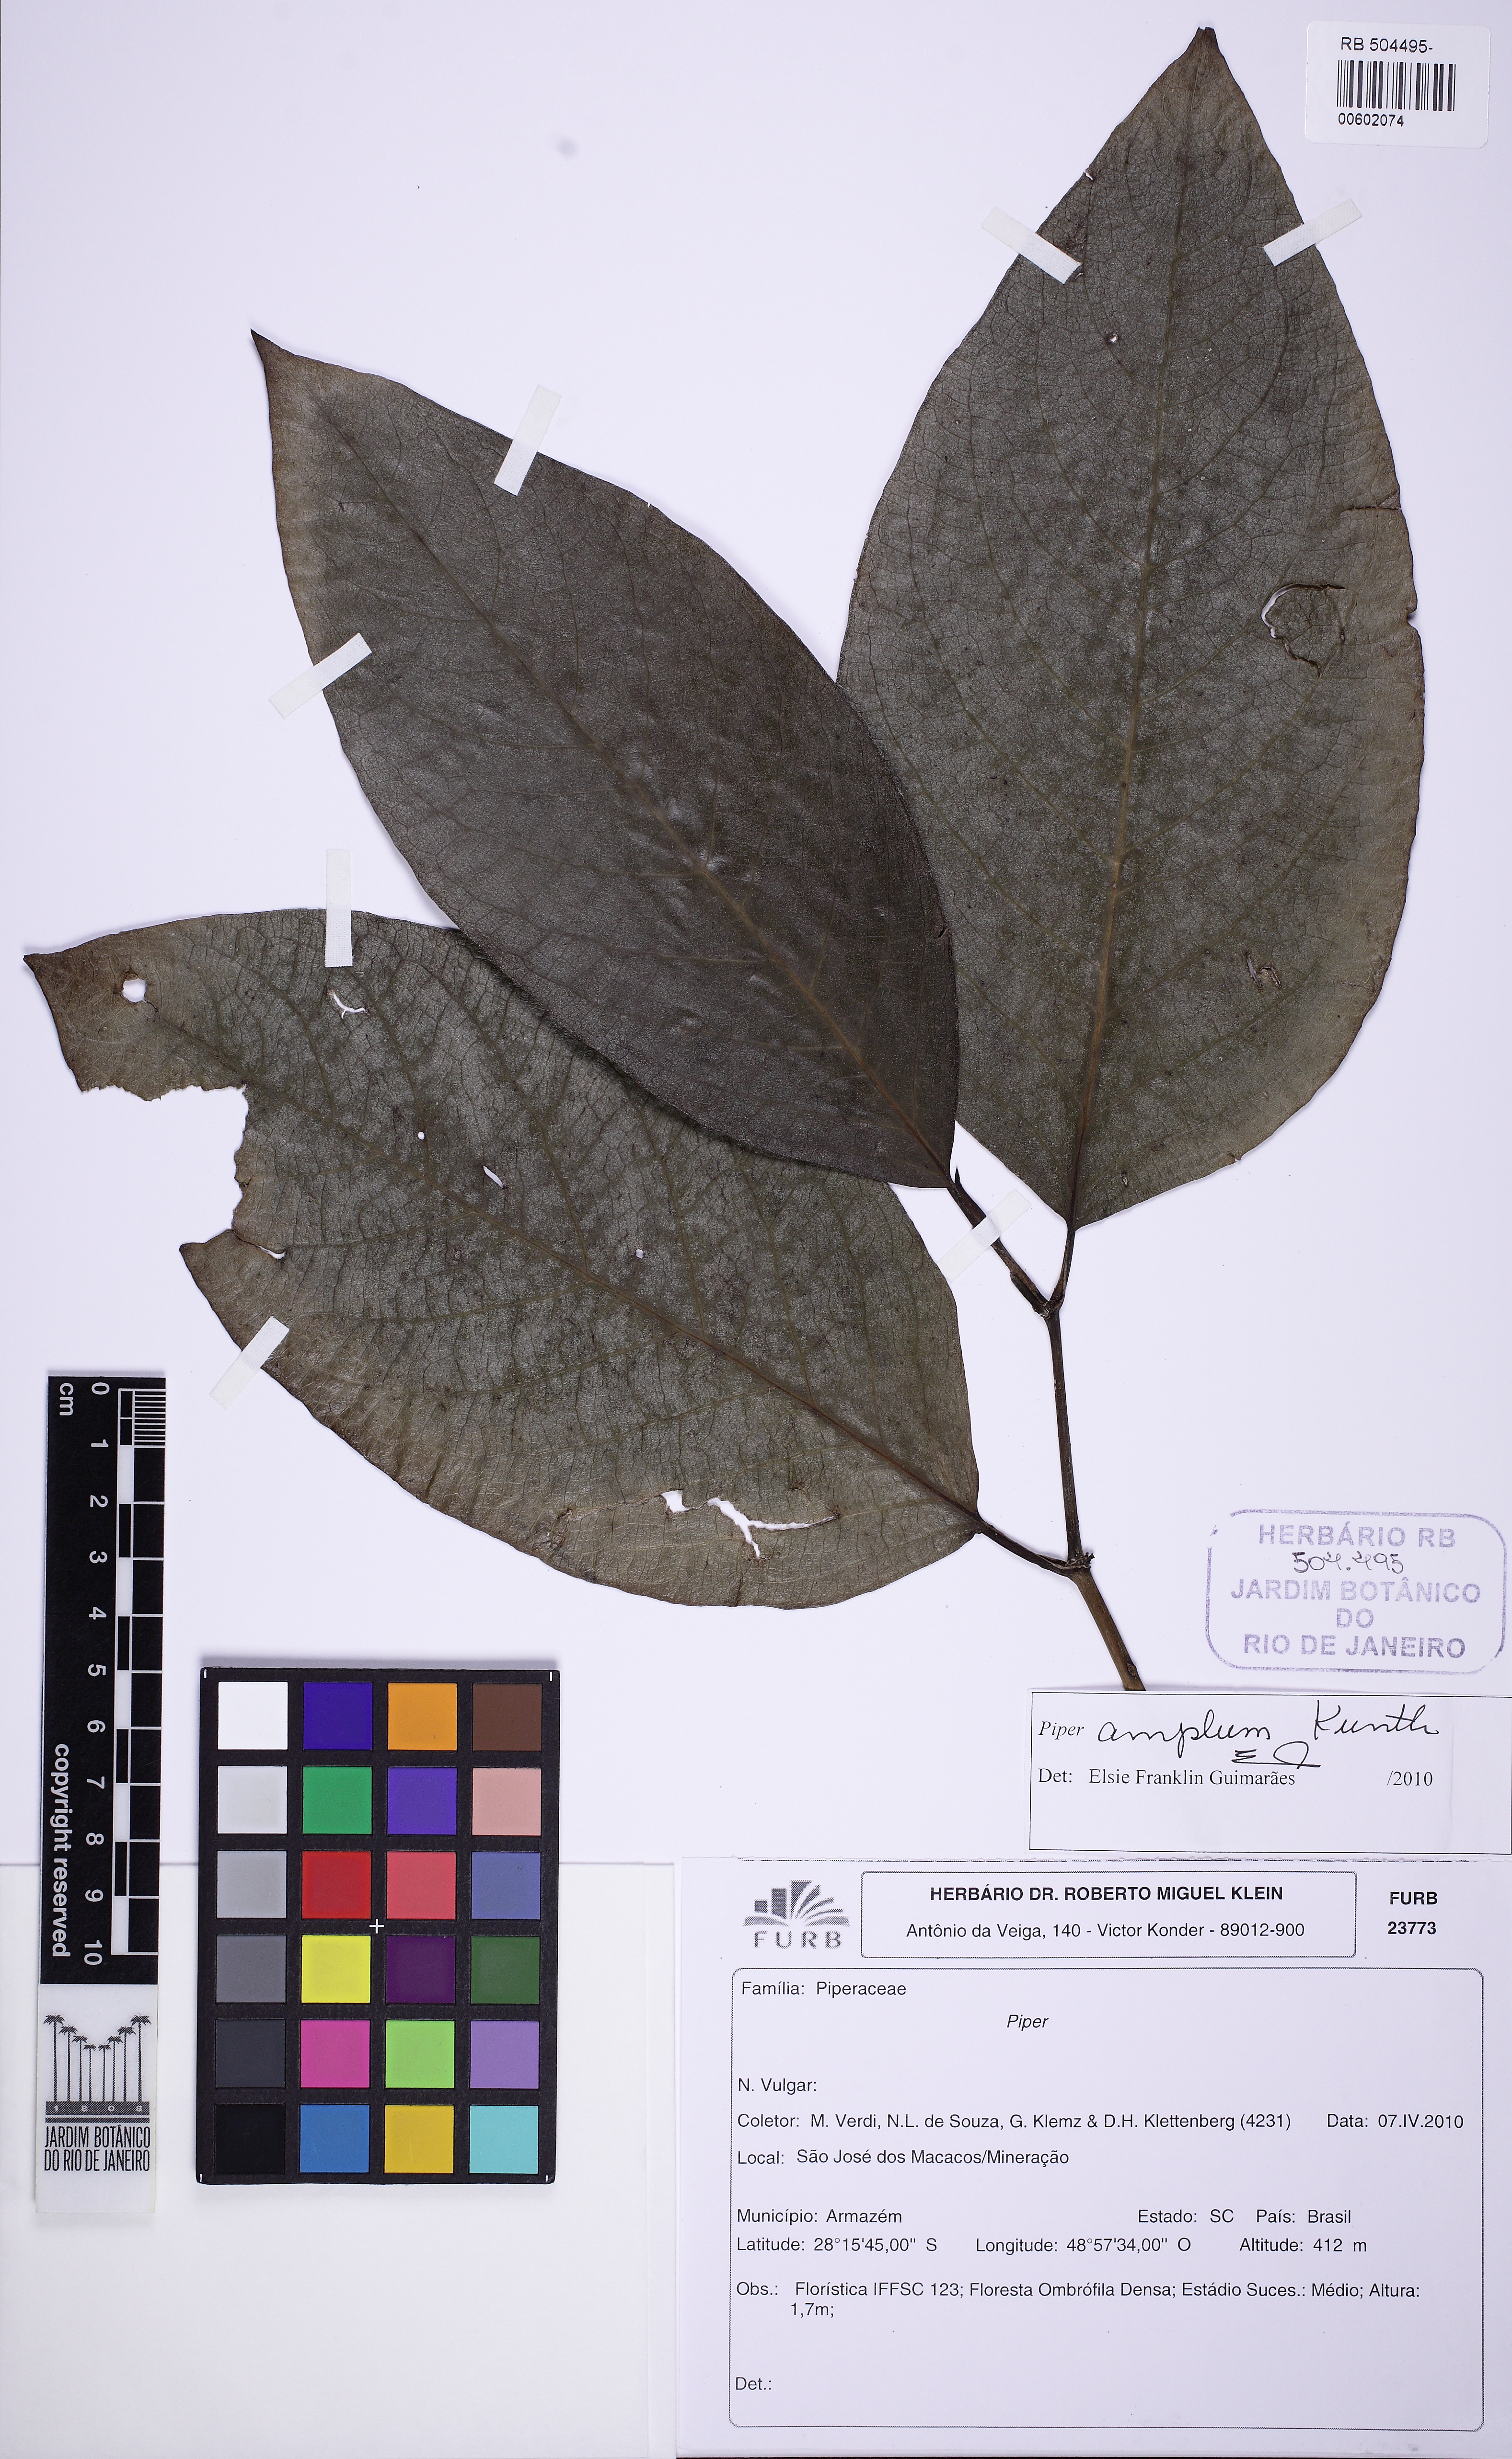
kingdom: Plantae
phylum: Tracheophyta
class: Magnoliopsida
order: Piperales
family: Piperaceae
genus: Piper
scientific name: Piper fluminense
